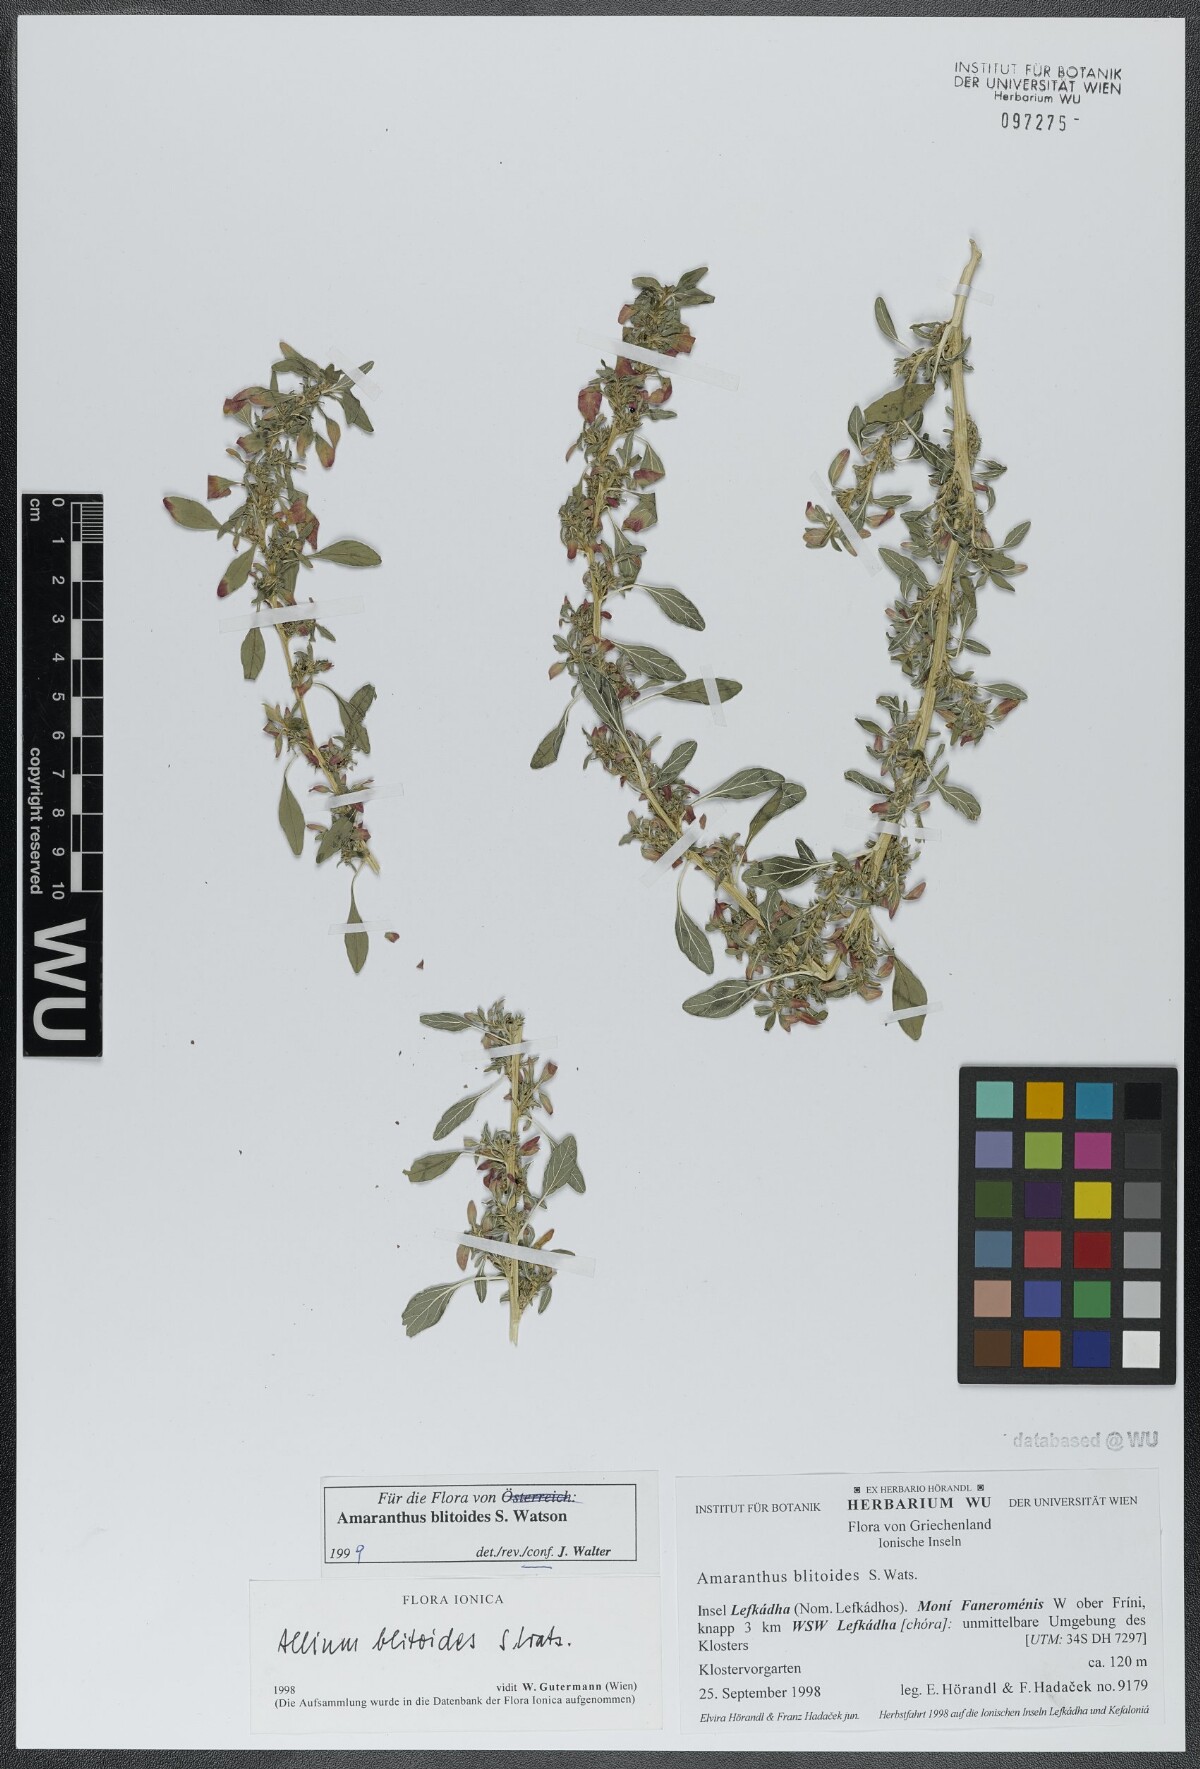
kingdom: Plantae
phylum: Tracheophyta
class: Magnoliopsida
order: Caryophyllales
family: Amaranthaceae
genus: Amaranthus
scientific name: Amaranthus blitoides
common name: Prostrate pigweed
